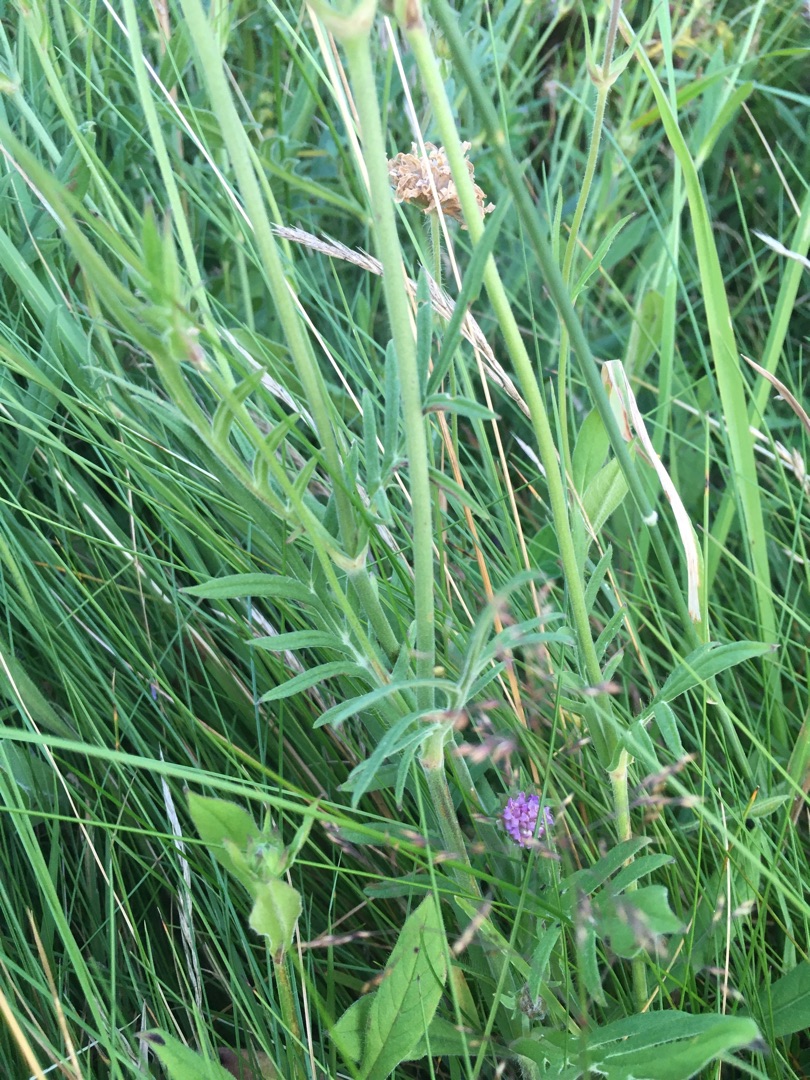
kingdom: Plantae
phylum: Tracheophyta
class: Magnoliopsida
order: Dipsacales
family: Caprifoliaceae
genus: Knautia
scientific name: Knautia arvensis
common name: Blåhat
